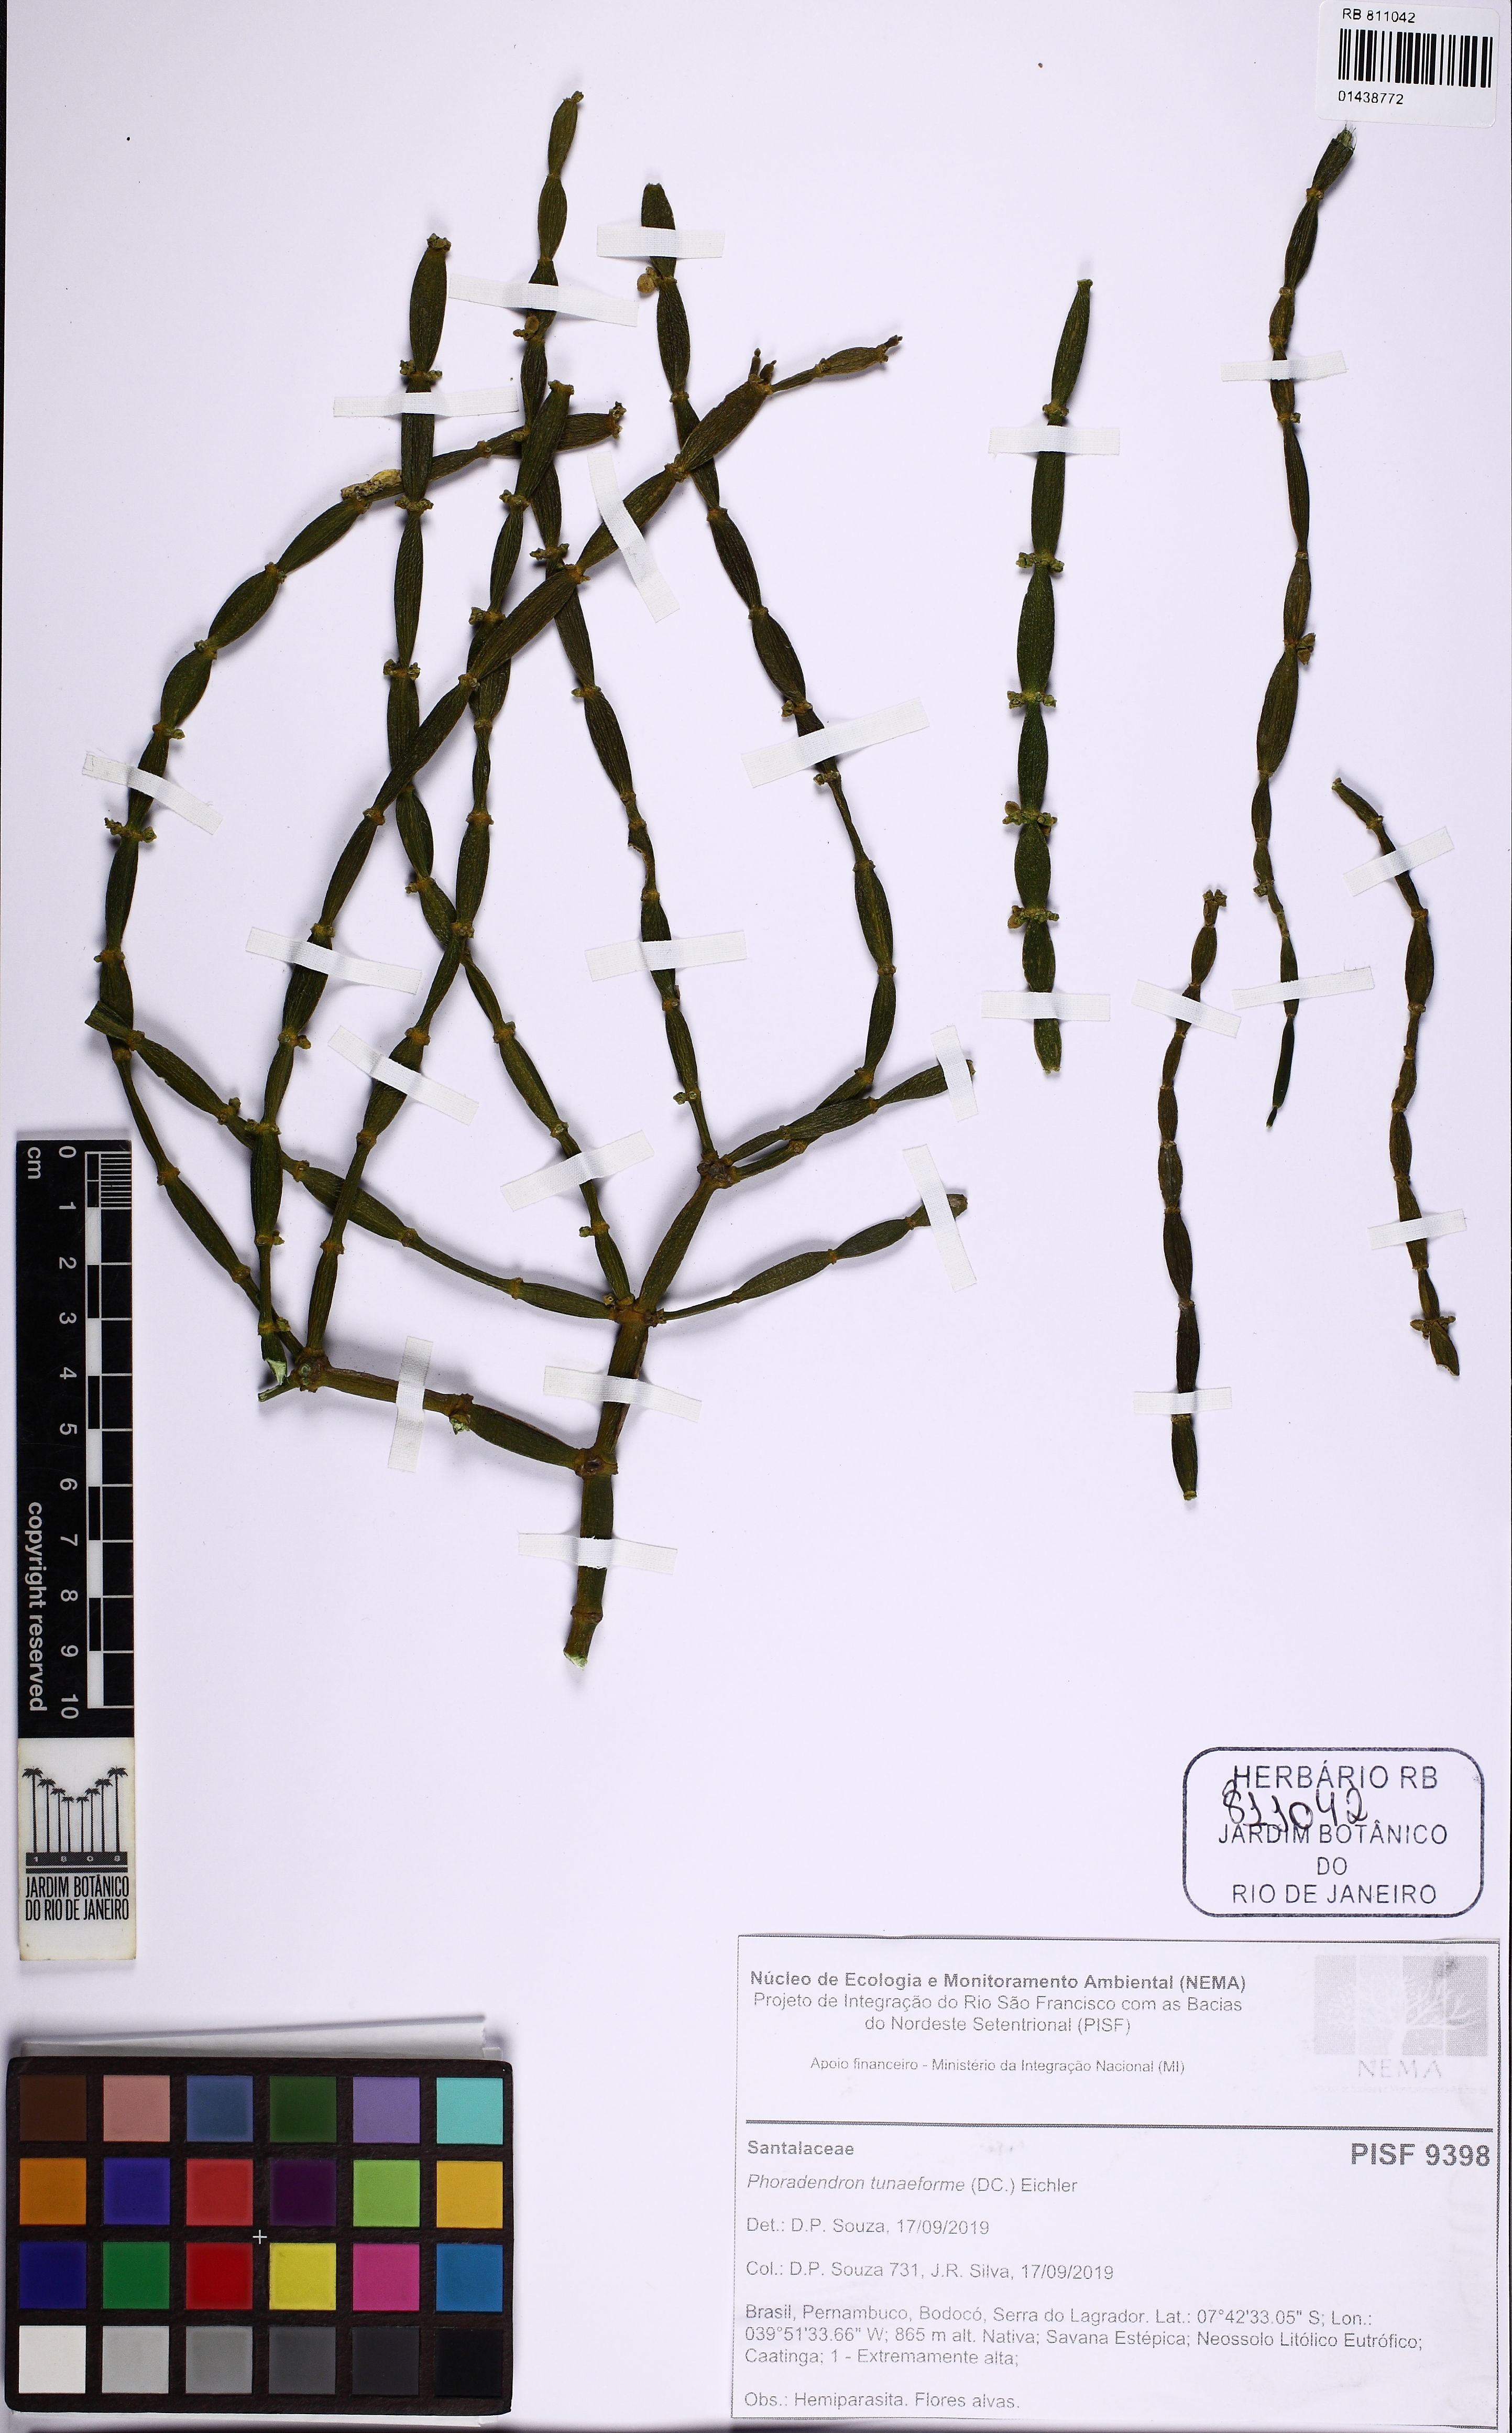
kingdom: Plantae
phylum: Tracheophyta
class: Magnoliopsida
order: Santalales
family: Viscaceae
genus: Phoradendron
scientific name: Phoradendron tunaeforme
